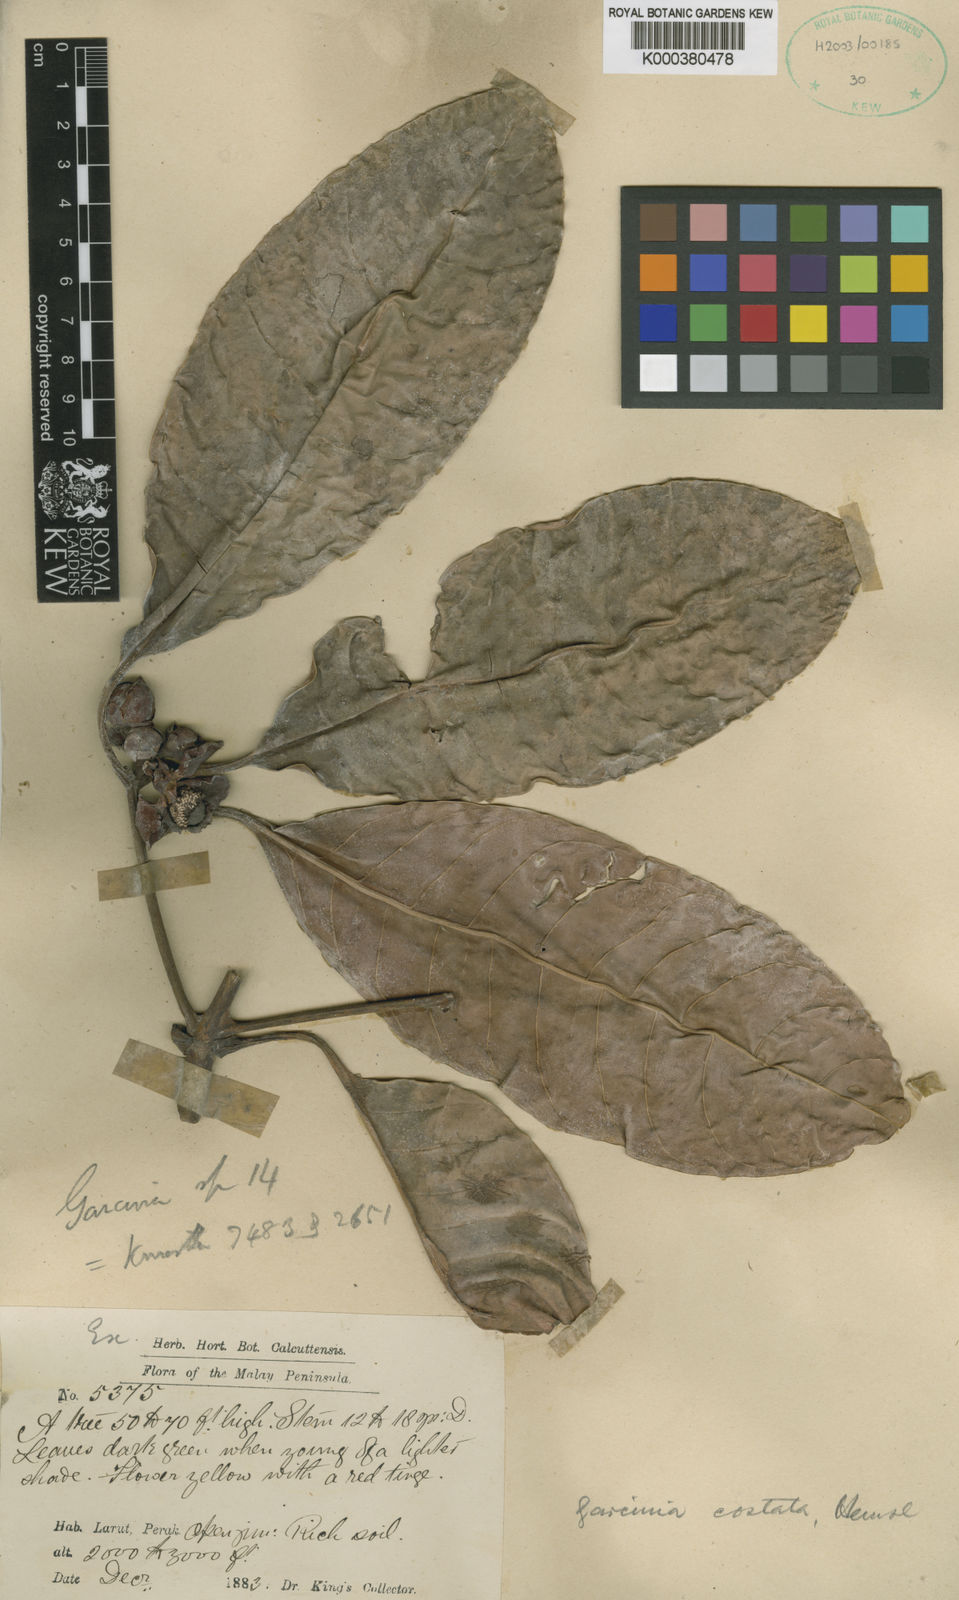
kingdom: Plantae
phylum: Tracheophyta
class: Magnoliopsida
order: Malpighiales
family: Clusiaceae
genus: Garcinia
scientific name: Garcinia costata
